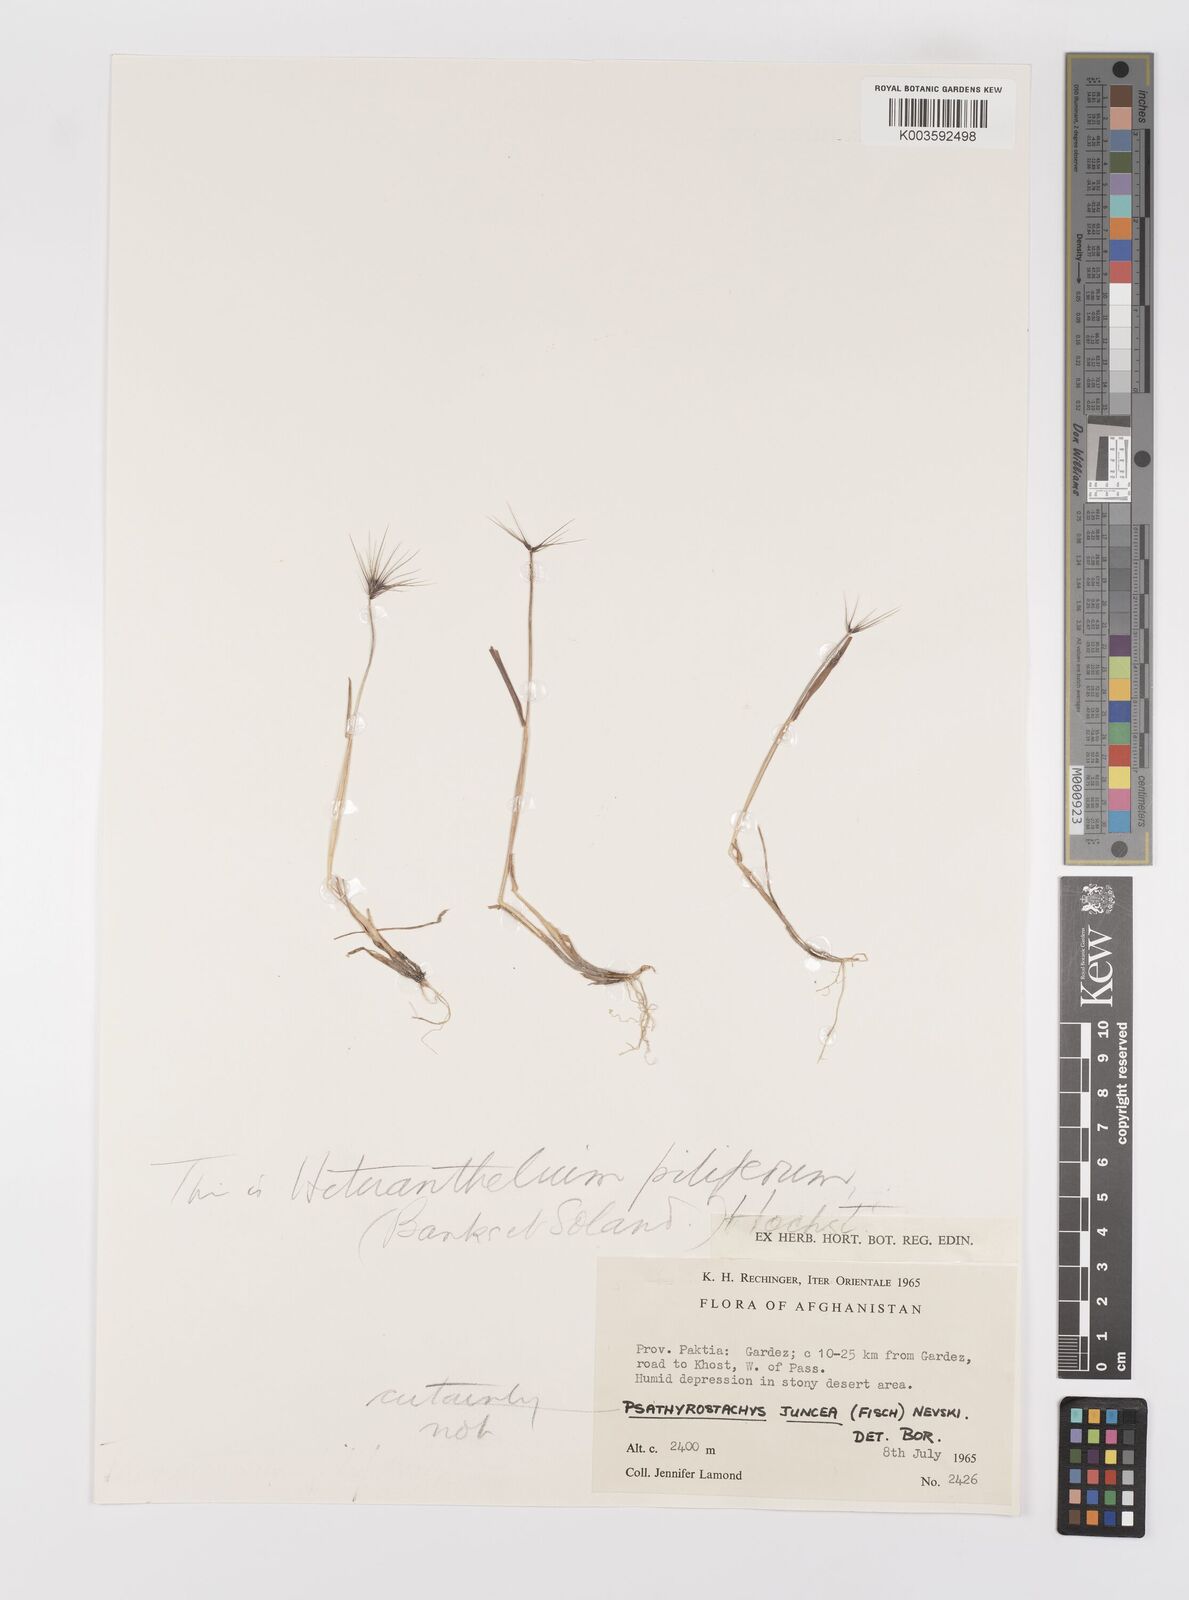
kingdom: Plantae
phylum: Tracheophyta
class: Liliopsida
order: Poales
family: Poaceae
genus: Heteranthelium
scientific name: Heteranthelium piliferum
